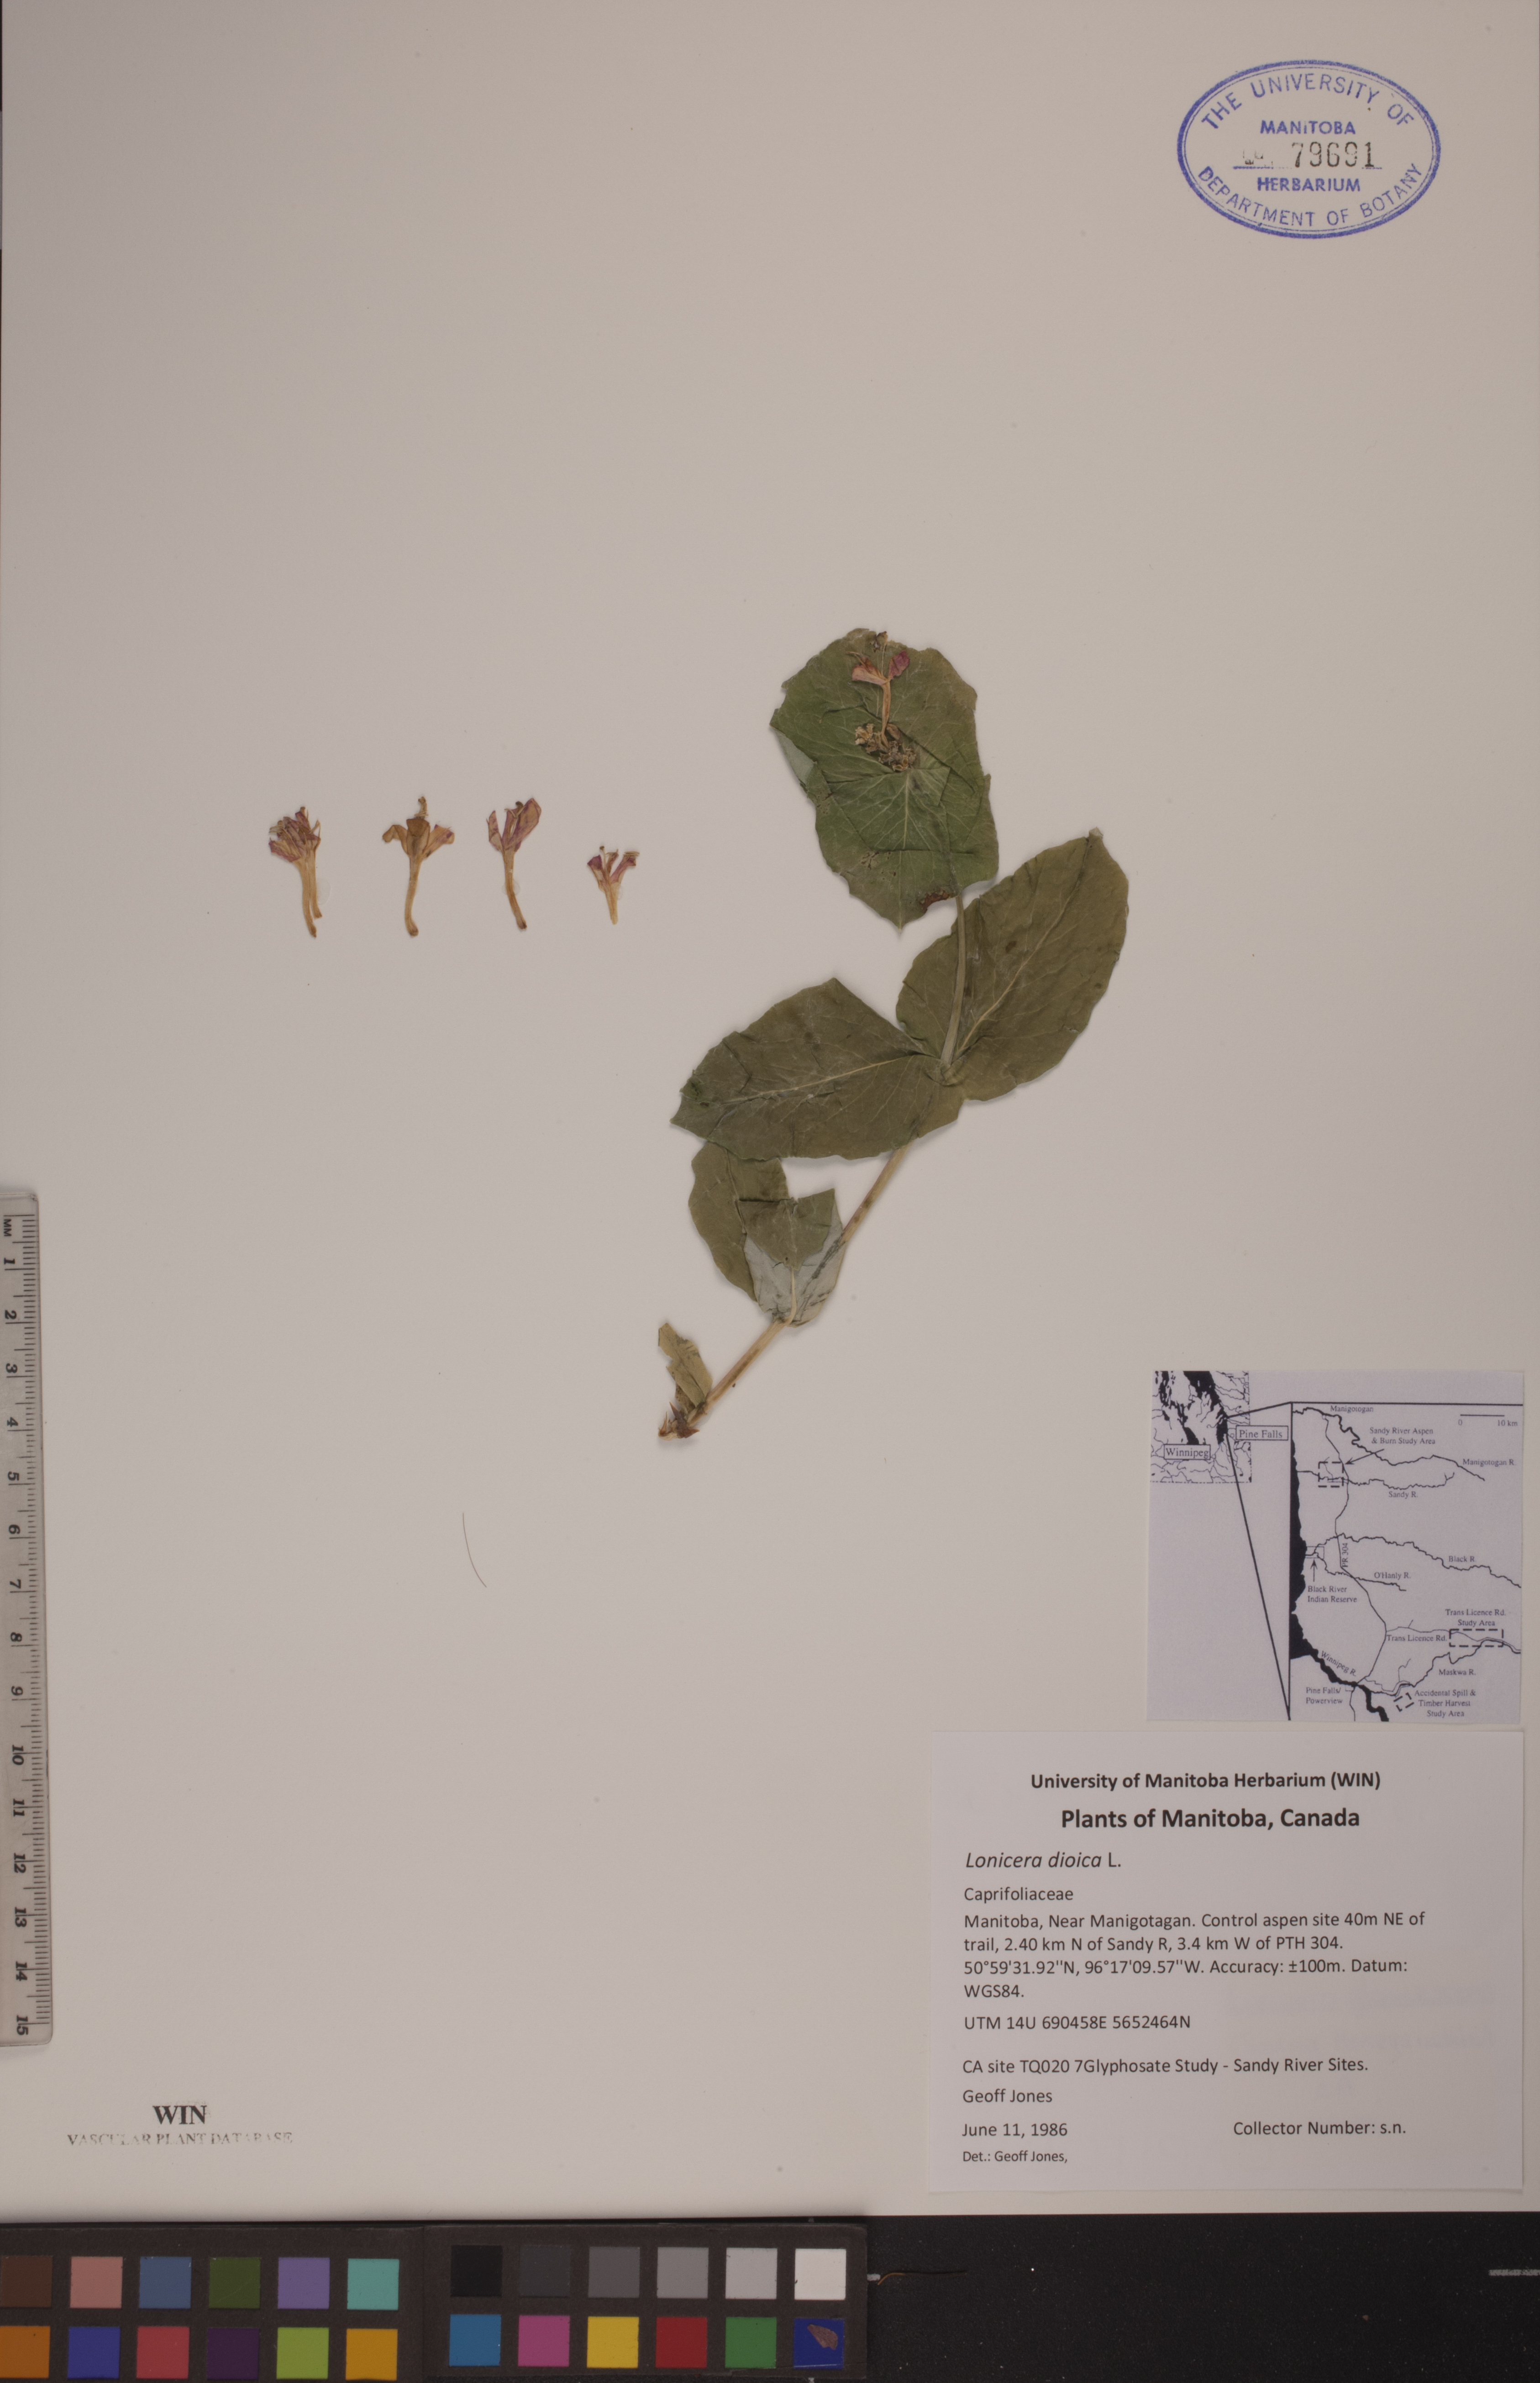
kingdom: Plantae
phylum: Tracheophyta
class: Magnoliopsida
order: Dipsacales
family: Caprifoliaceae
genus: Lonicera
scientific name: Lonicera dioica
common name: Limber honeysuckle
